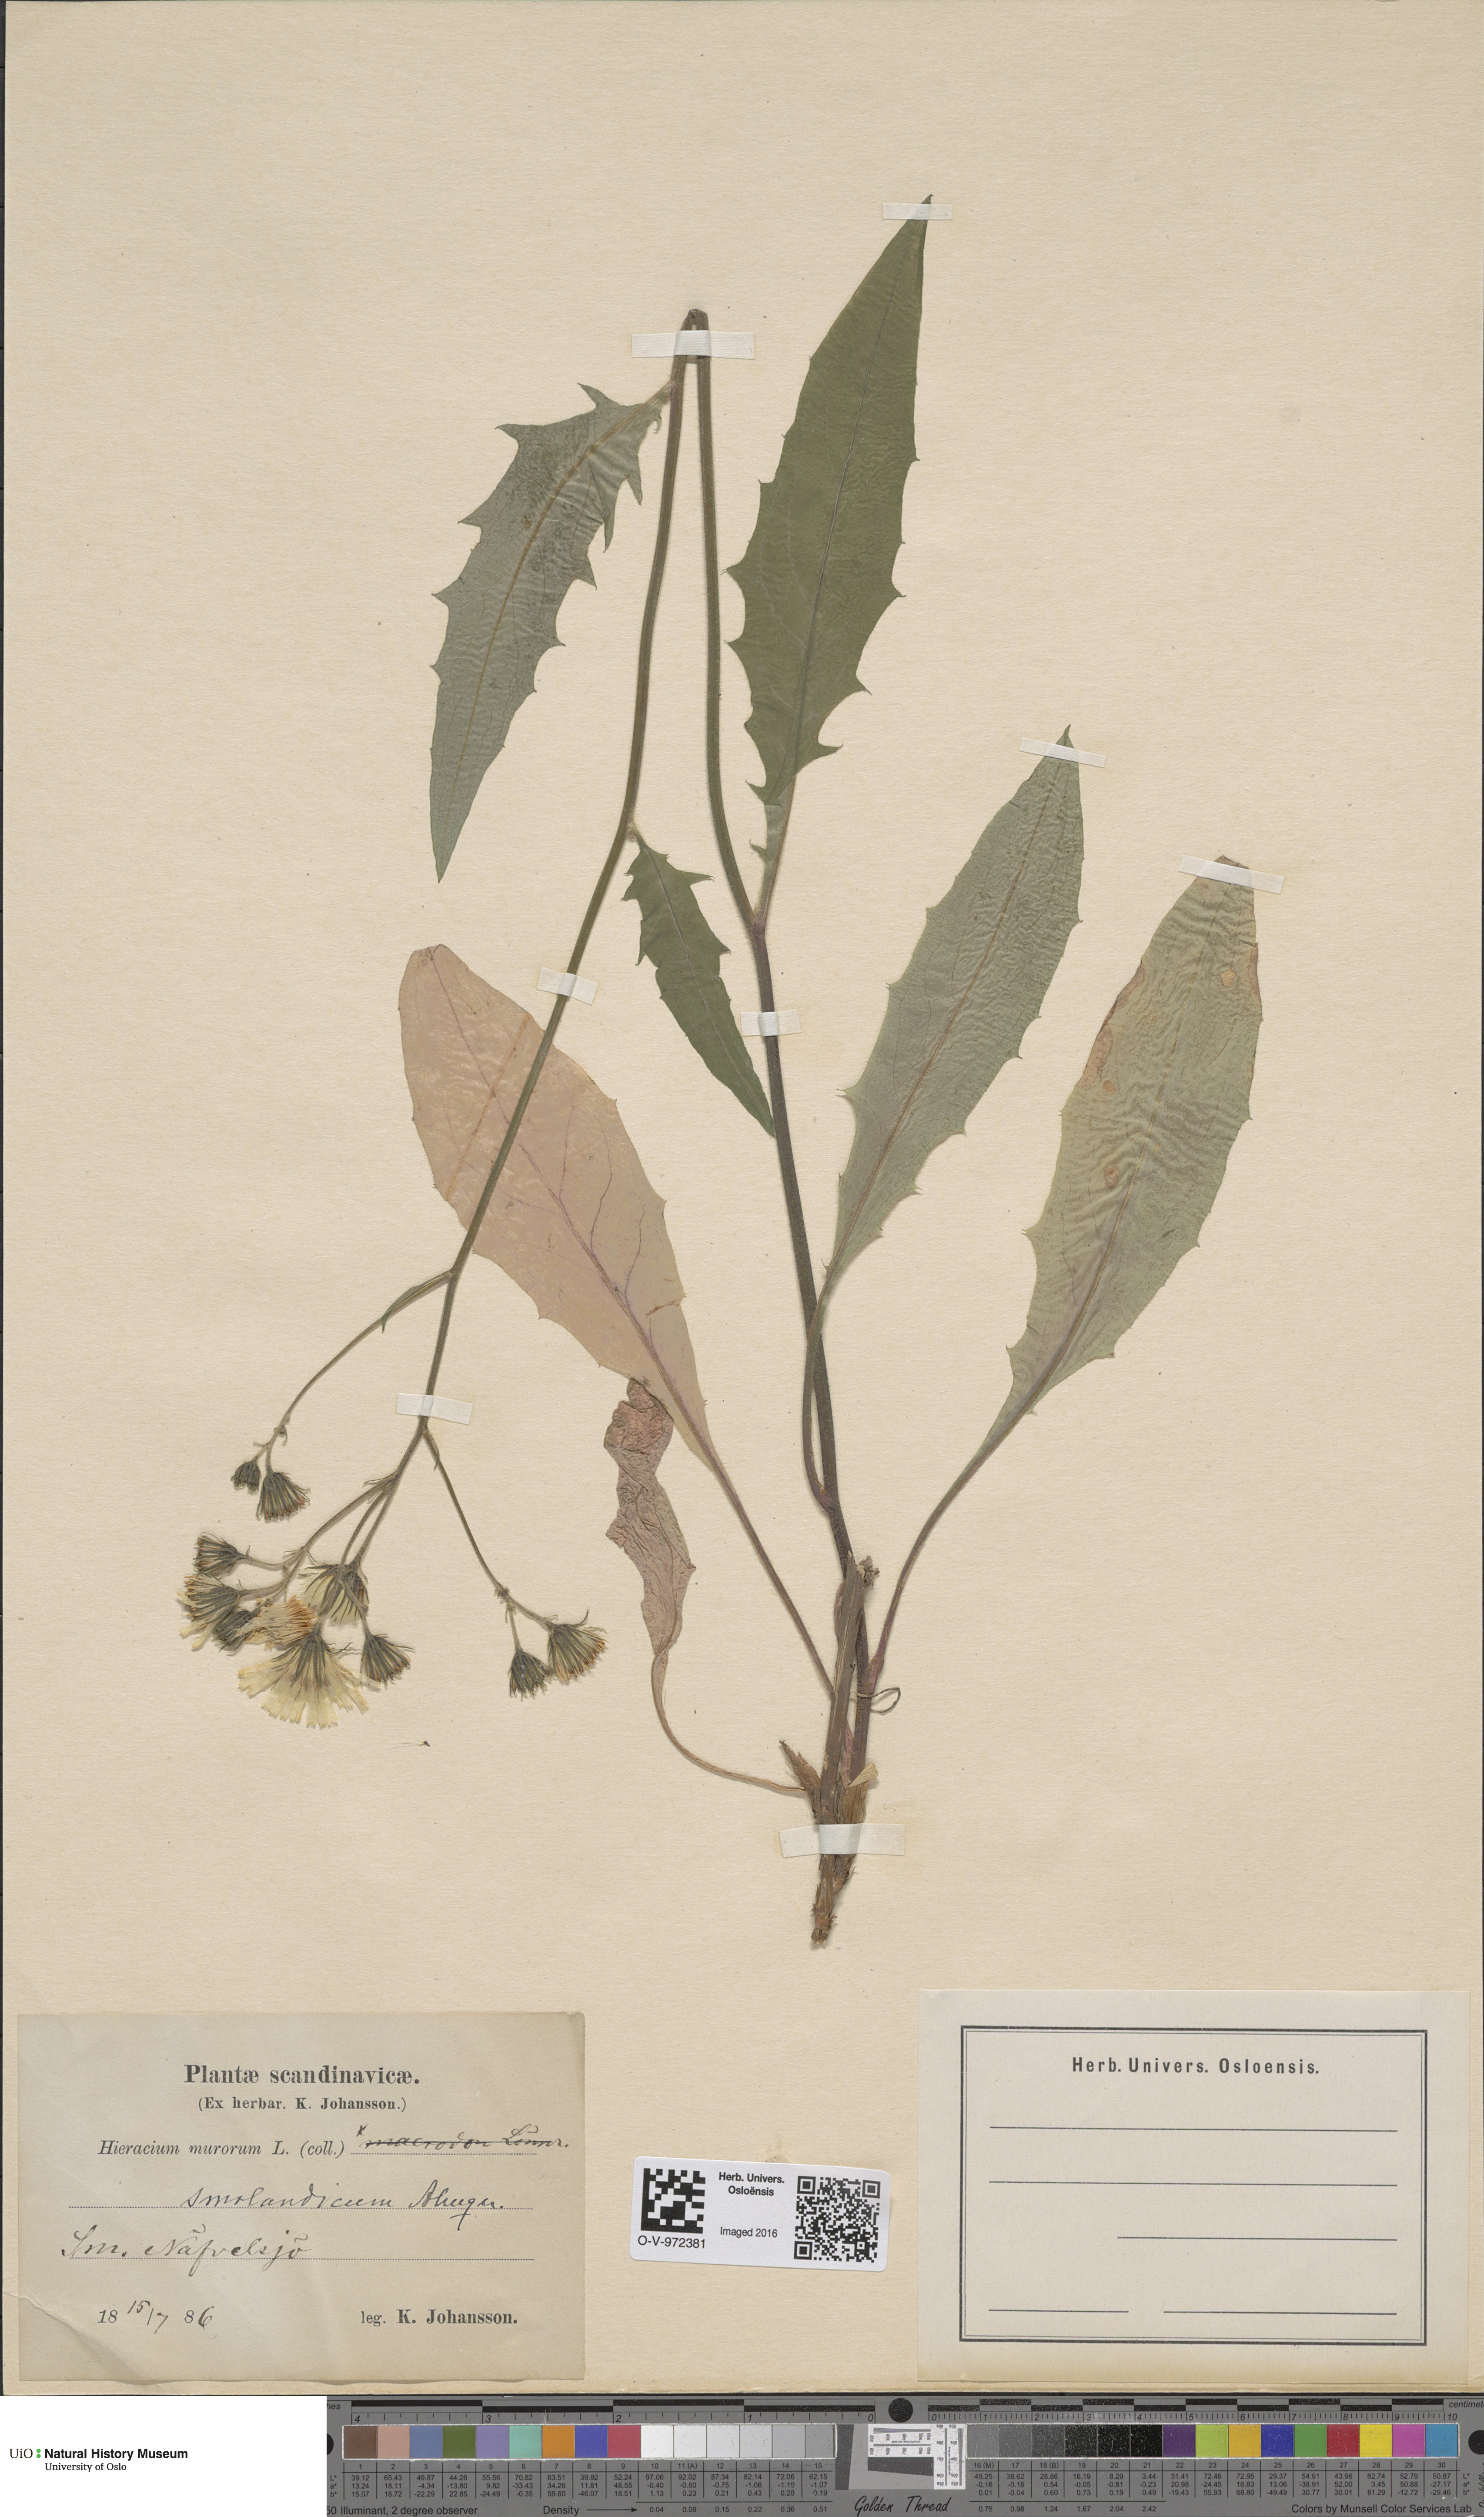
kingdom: Plantae
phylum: Tracheophyta
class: Magnoliopsida
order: Asterales
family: Asteraceae
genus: Hieracium
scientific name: Hieracium smolandicum
